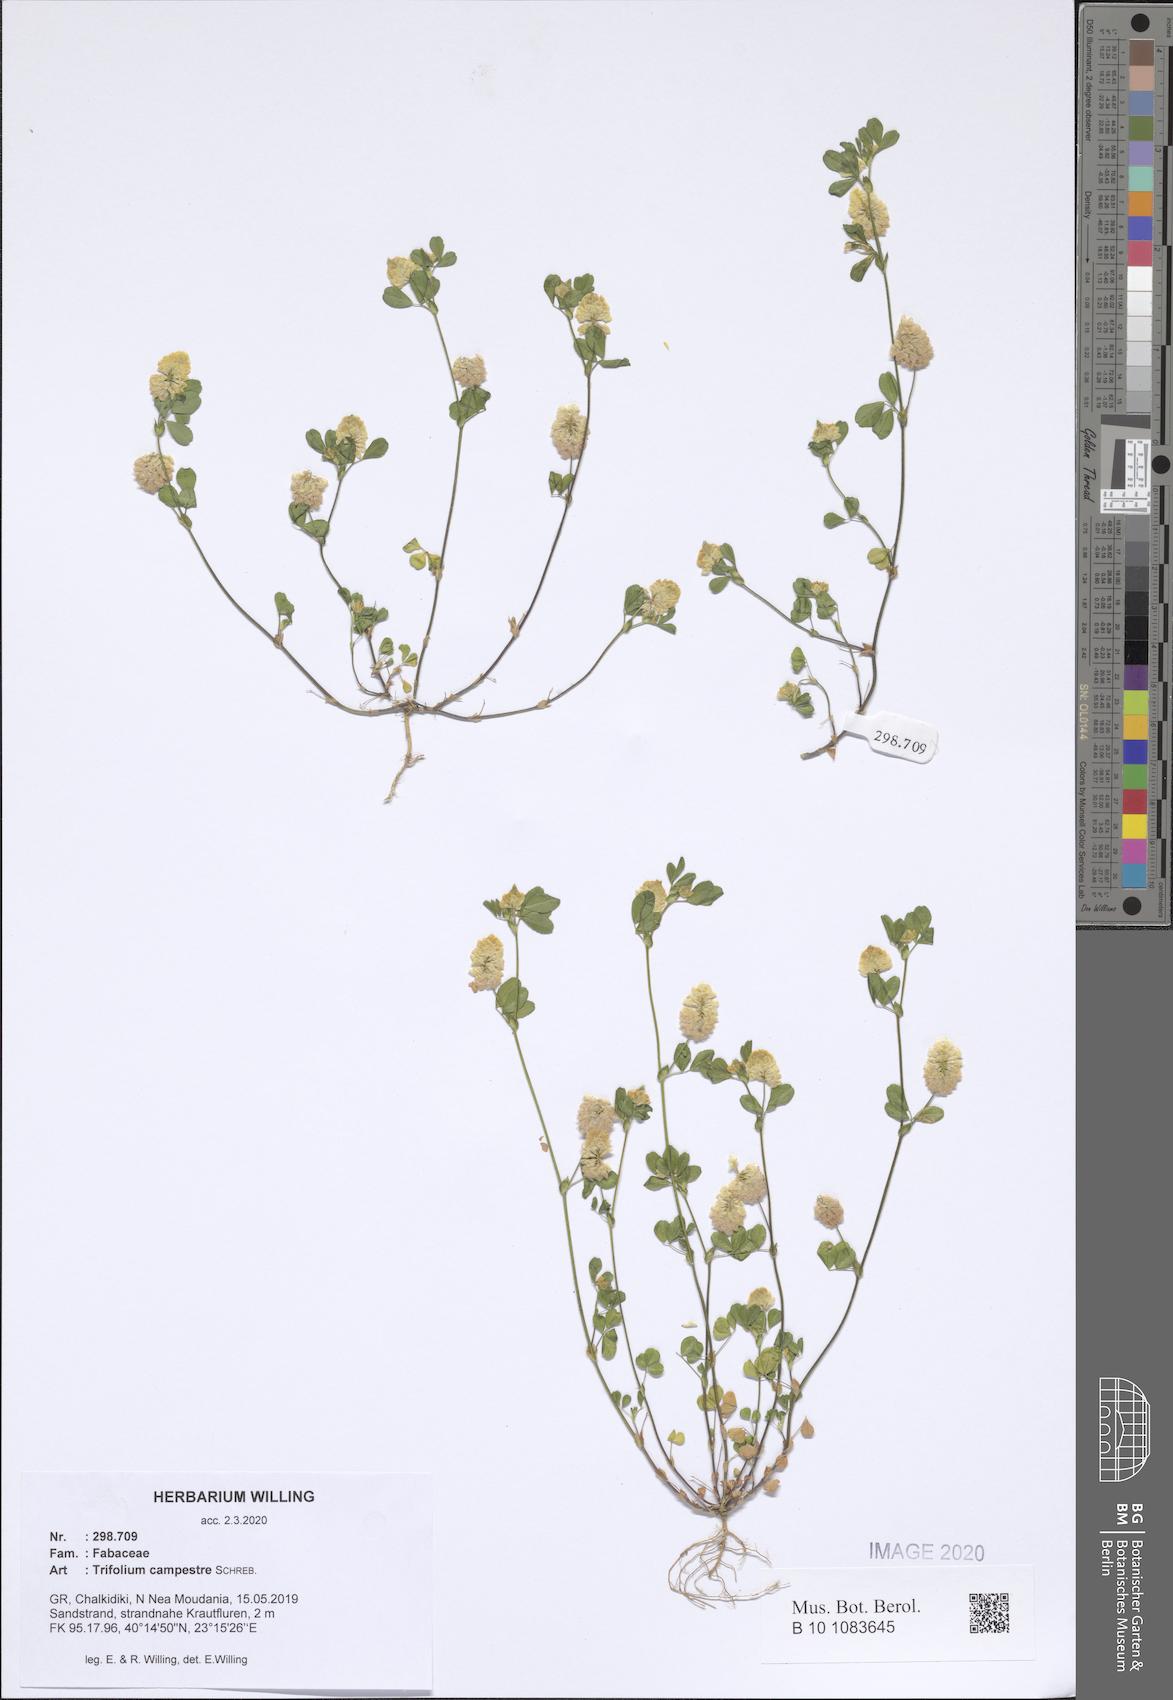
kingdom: Plantae
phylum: Tracheophyta
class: Magnoliopsida
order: Fabales
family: Fabaceae
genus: Trifolium
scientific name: Trifolium campestre
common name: Field clover
